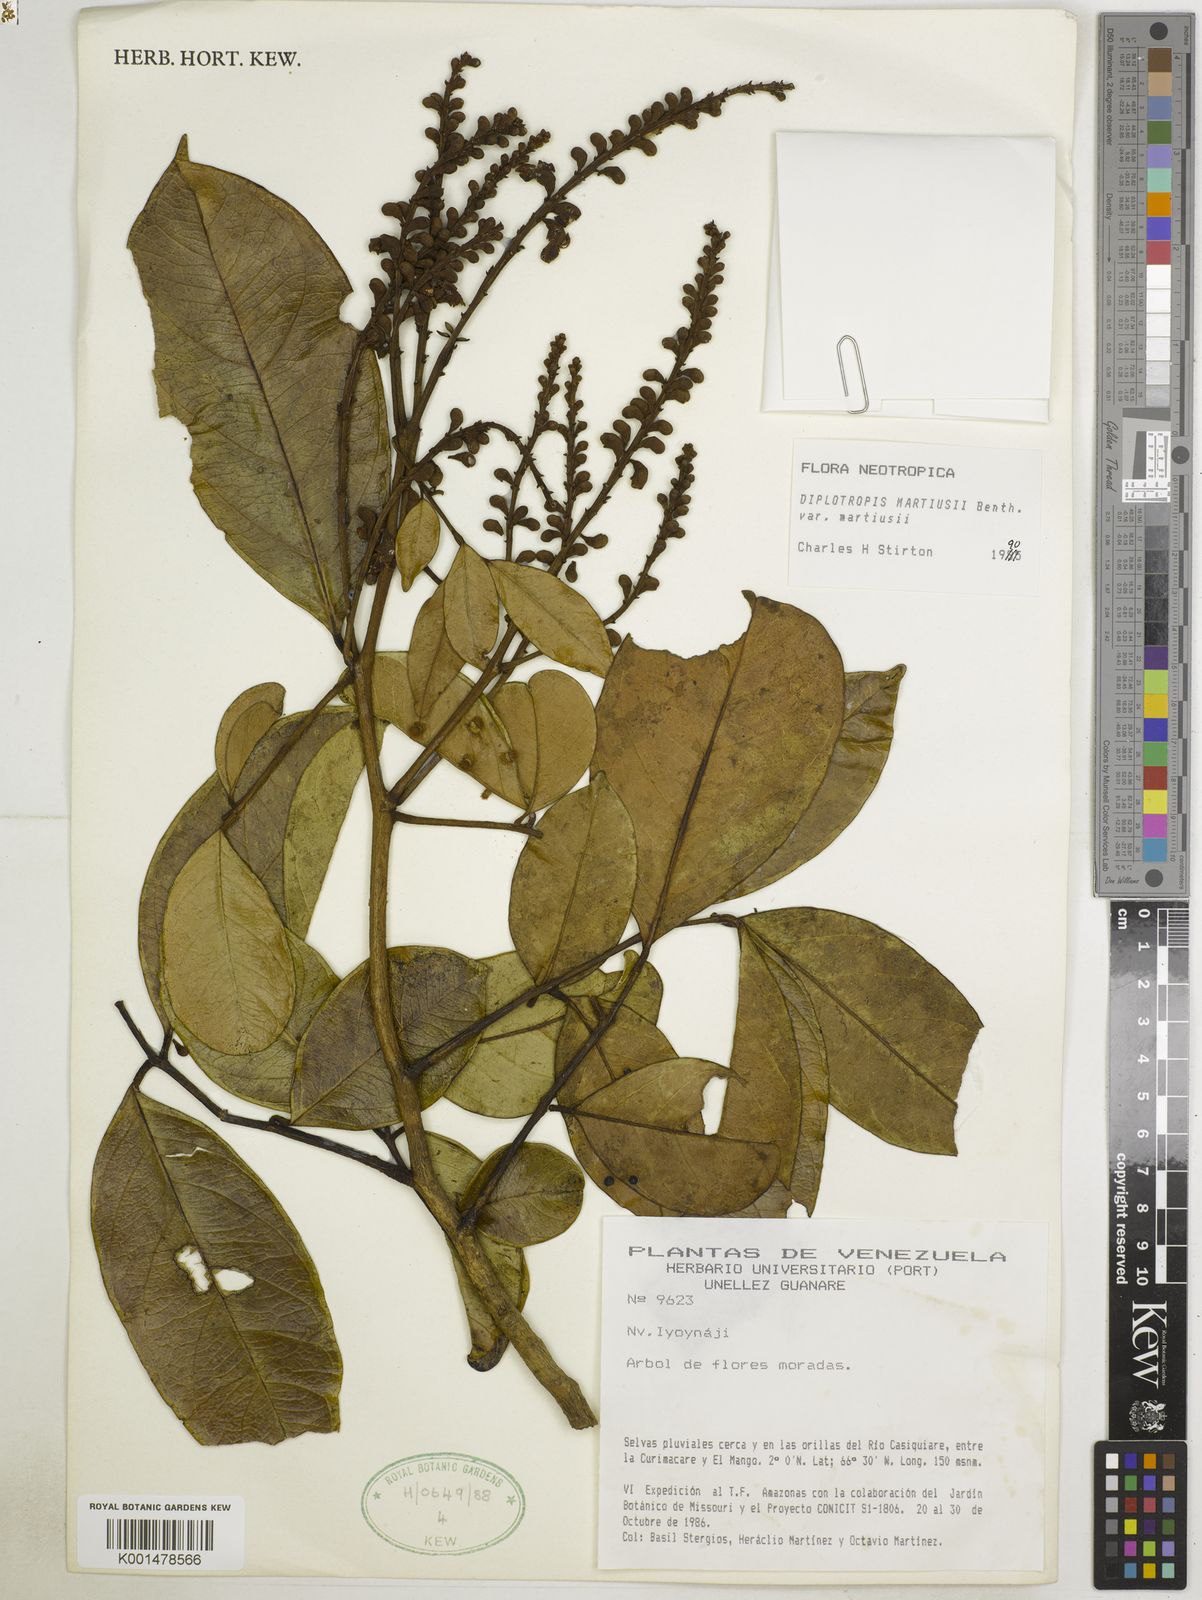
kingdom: Plantae
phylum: Tracheophyta
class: Magnoliopsida
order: Fabales
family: Fabaceae
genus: Diplotropis
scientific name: Diplotropis martiusii
